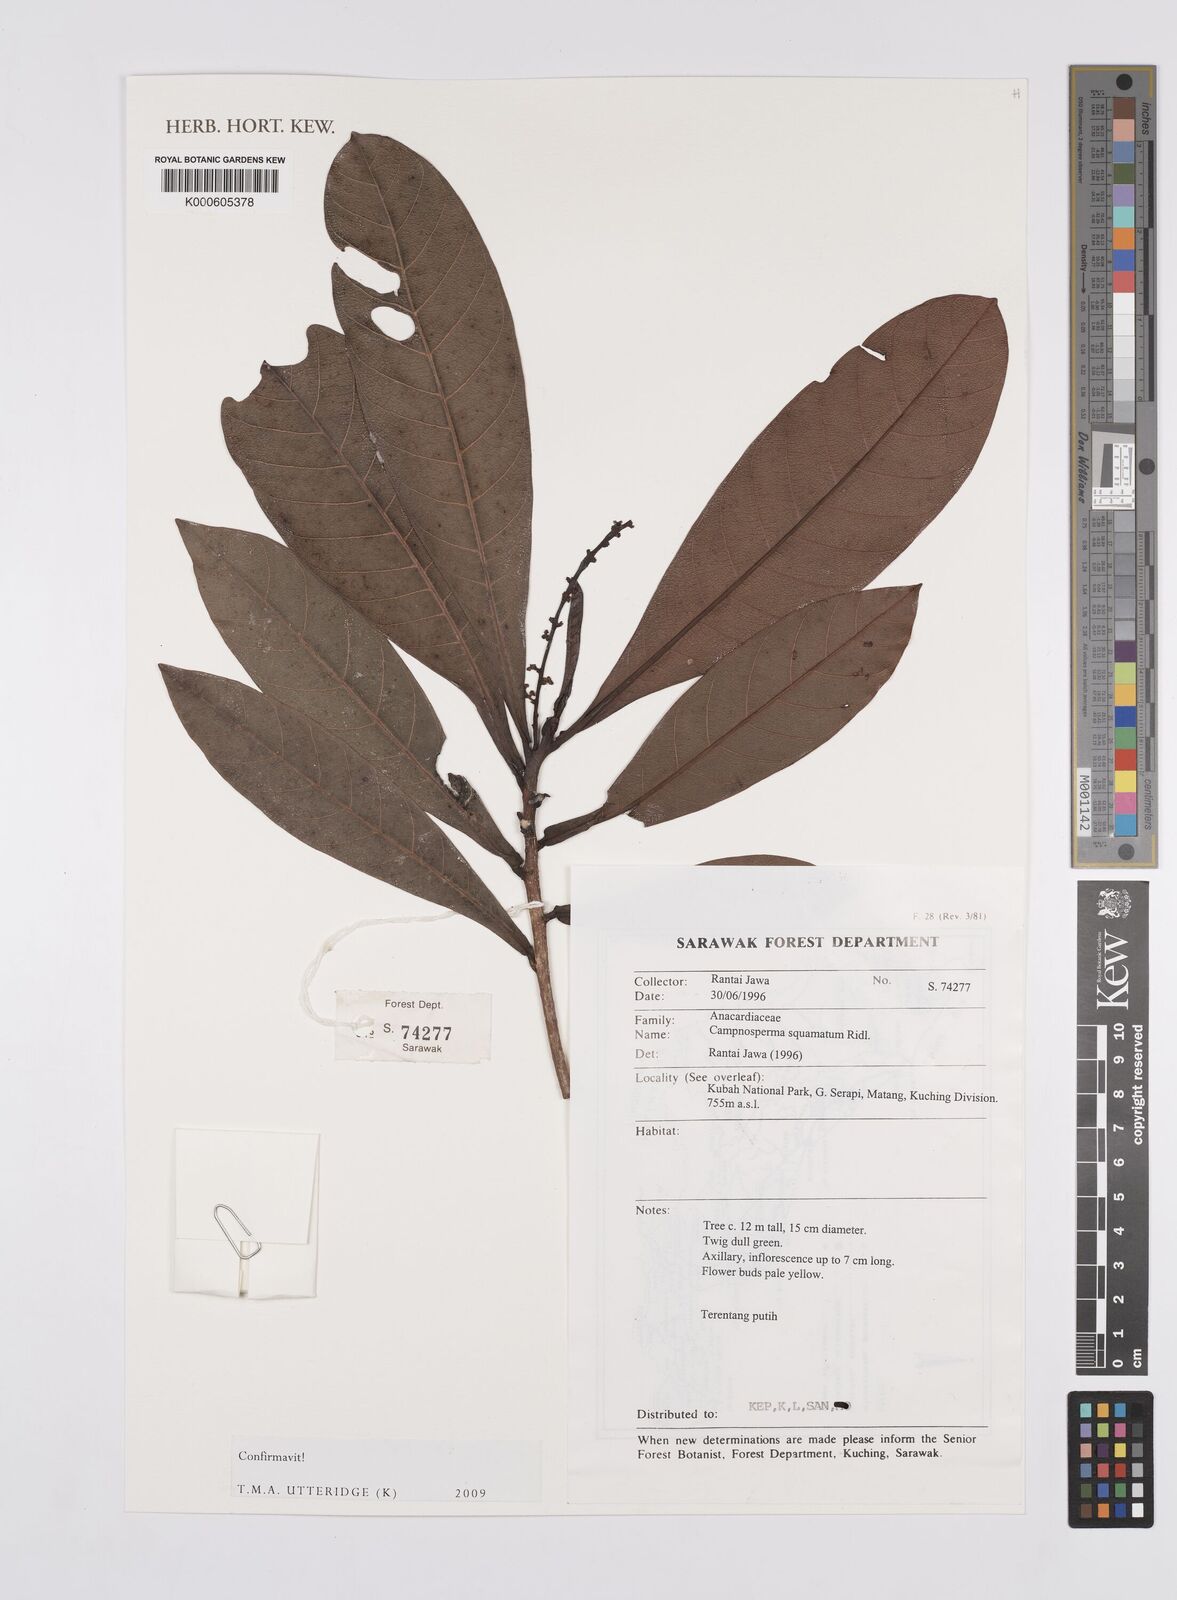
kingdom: Plantae
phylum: Tracheophyta
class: Magnoliopsida
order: Sapindales
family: Anacardiaceae
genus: Campnosperma
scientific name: Campnosperma squamatum
